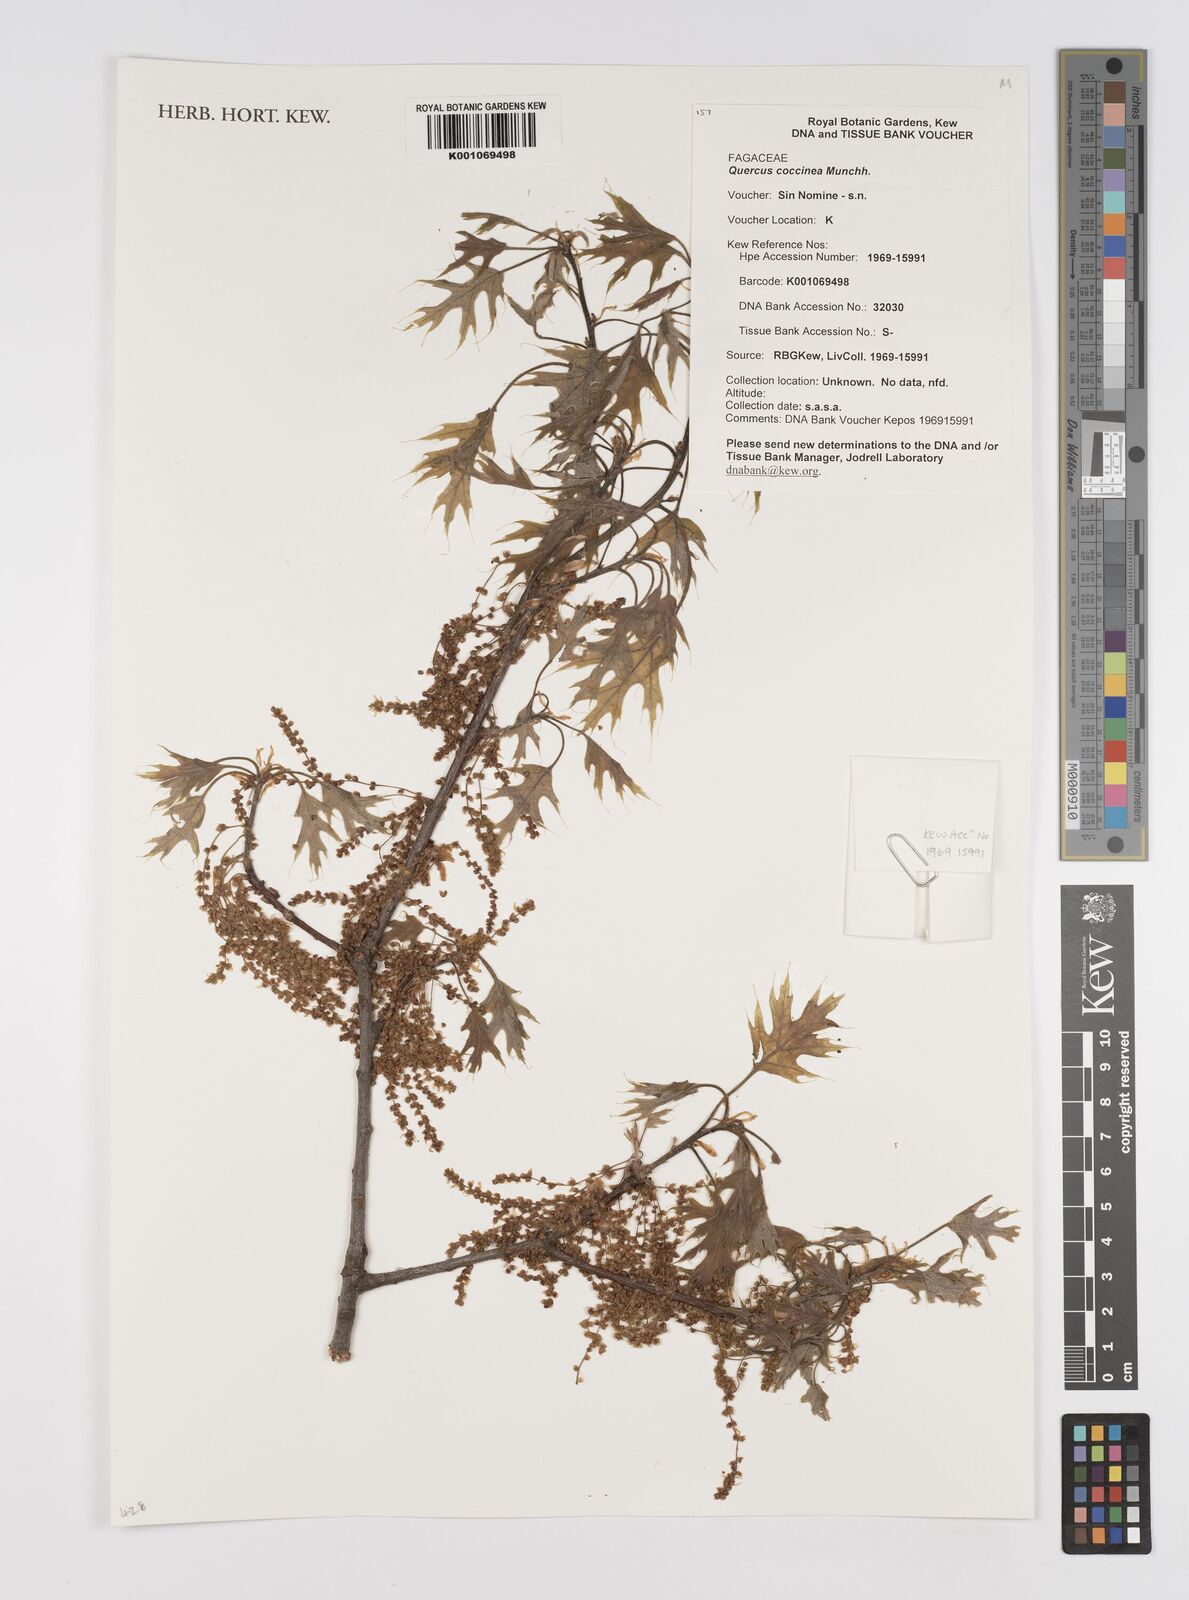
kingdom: Plantae
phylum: Tracheophyta
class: Magnoliopsida
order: Fagales
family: Fagaceae
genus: Quercus
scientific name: Quercus coccinea
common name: Scarlet oak
